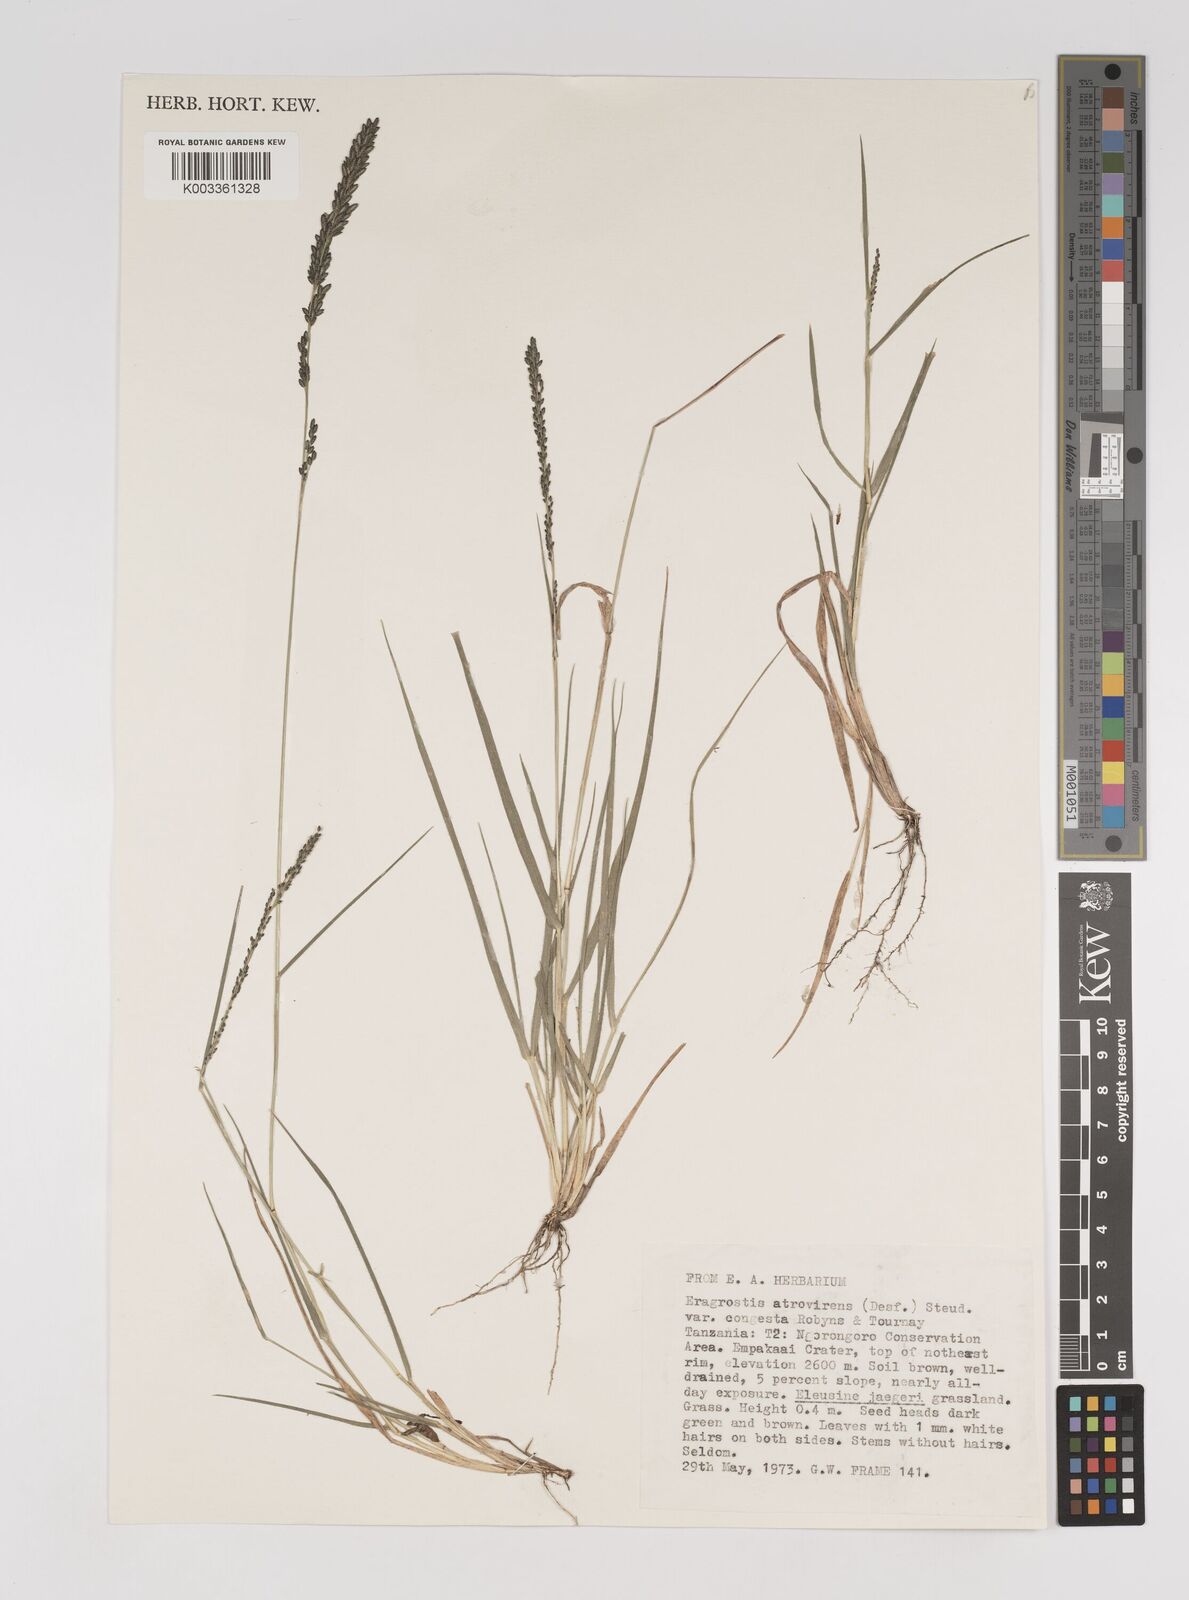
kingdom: Plantae
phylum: Tracheophyta
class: Liliopsida
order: Poales
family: Poaceae
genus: Eragrostis
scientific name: Eragrostis botryodes
